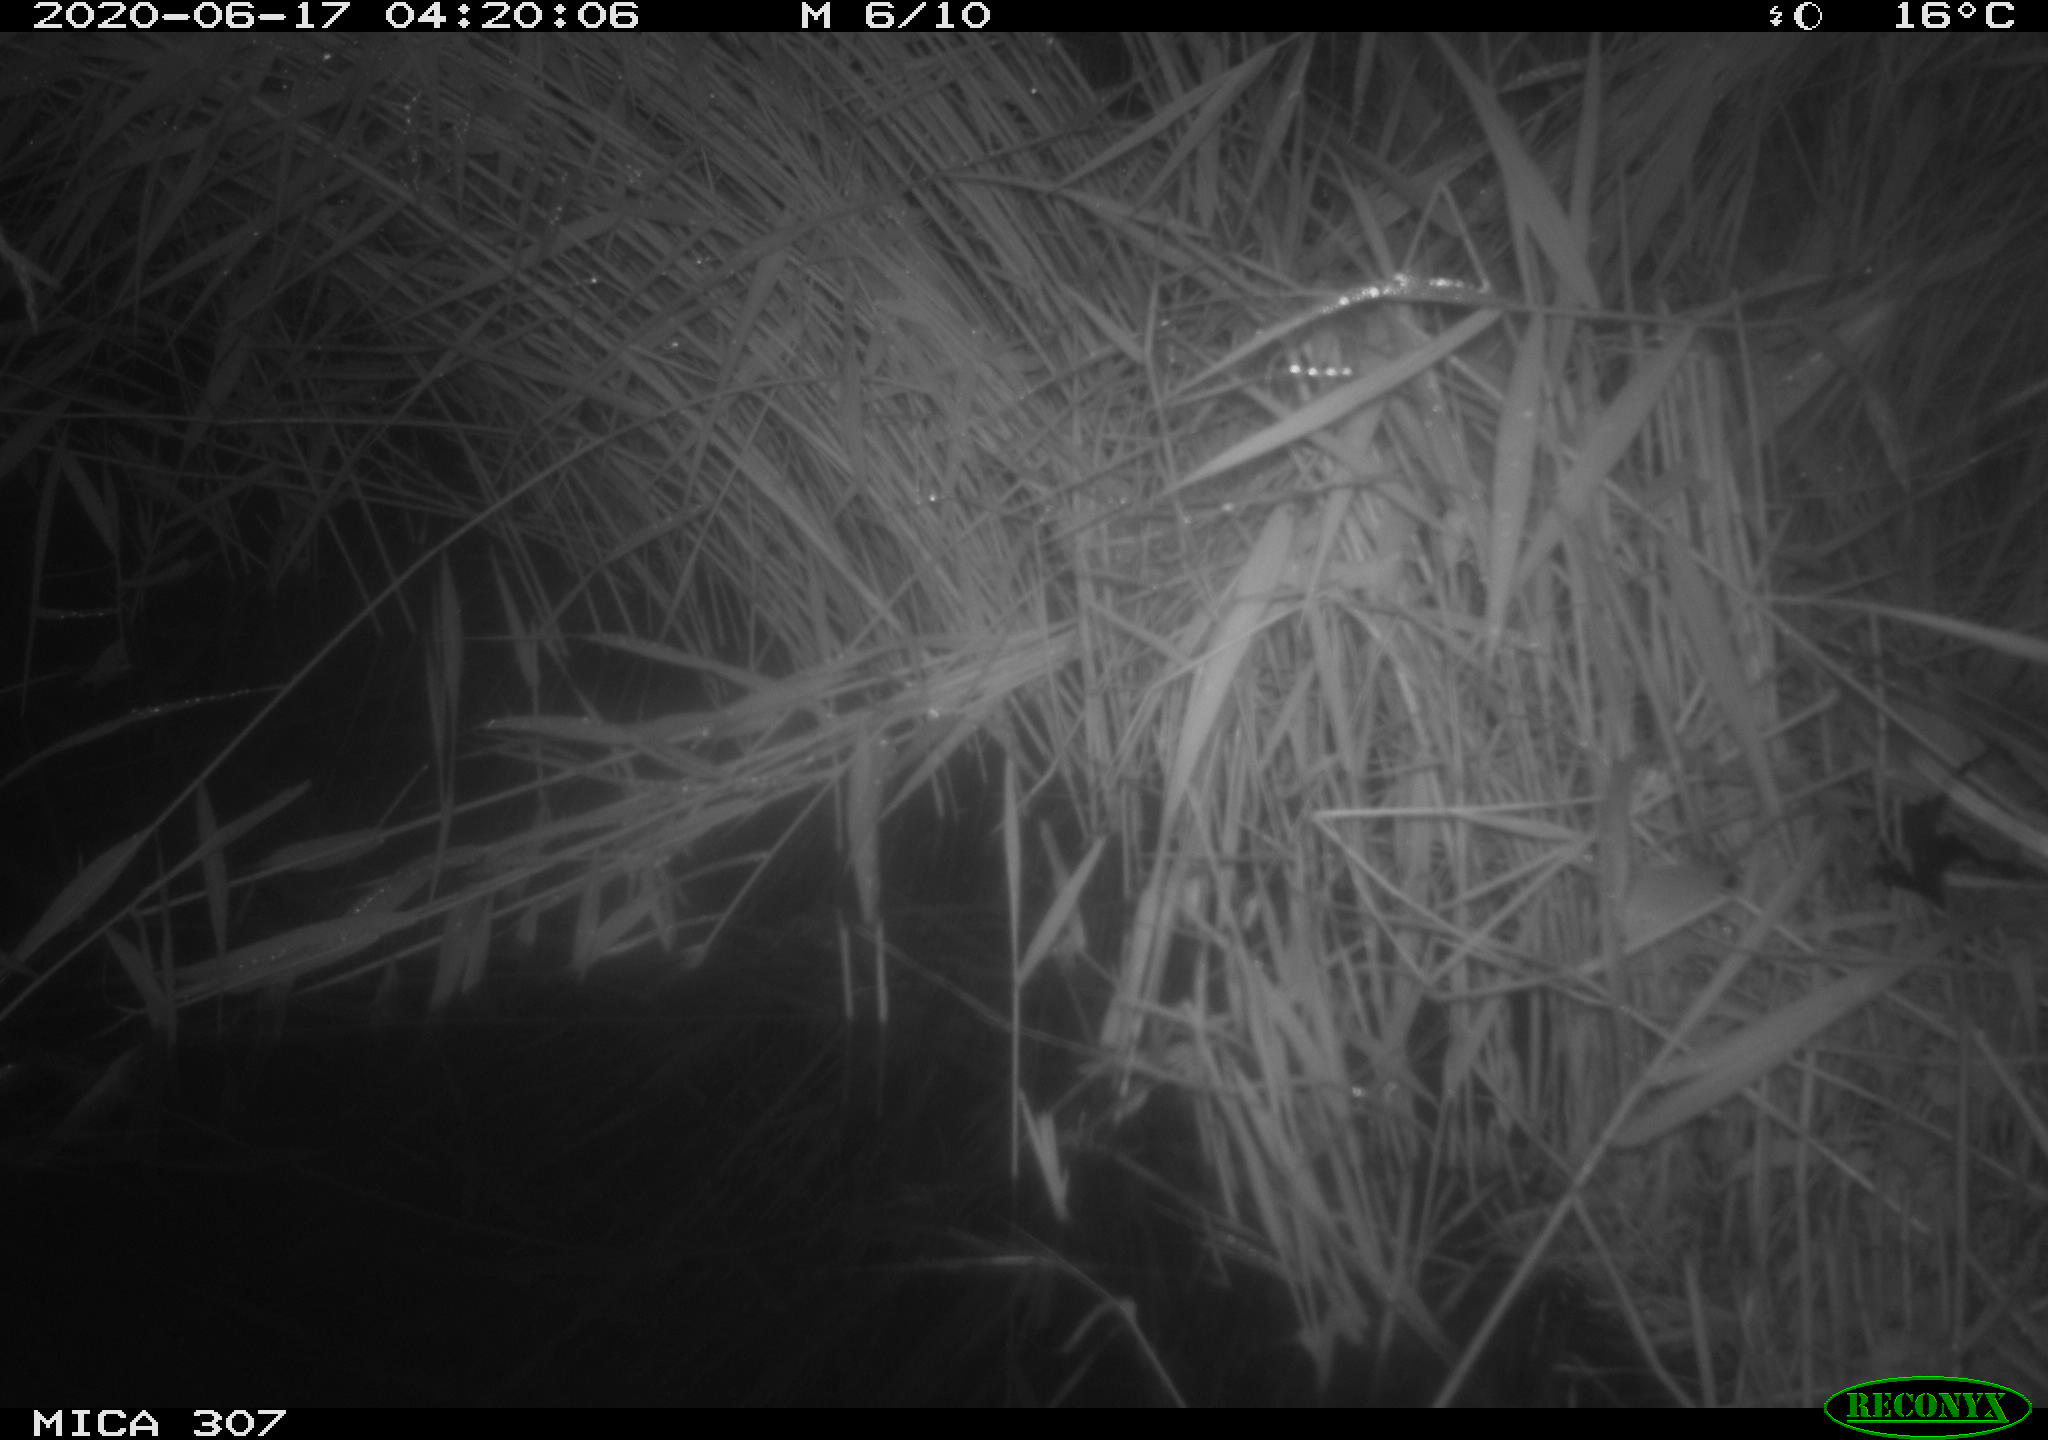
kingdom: Animalia
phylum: Chordata
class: Mammalia
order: Rodentia
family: Muridae
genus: Rattus
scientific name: Rattus norvegicus
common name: Brown rat
